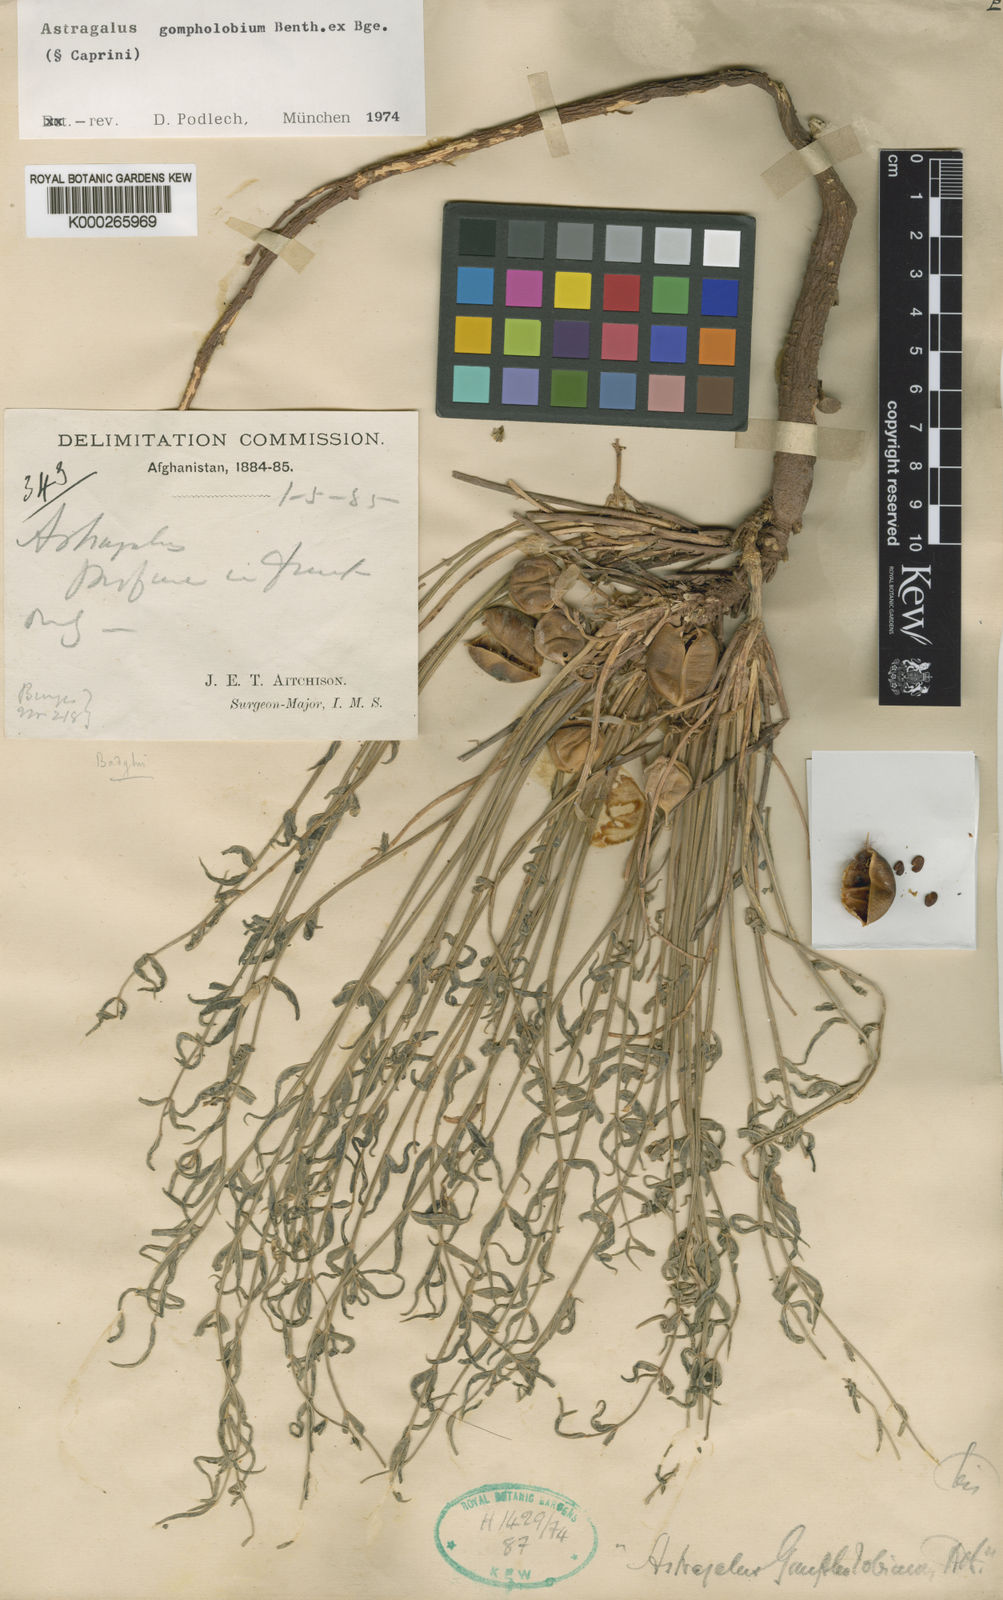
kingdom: Plantae
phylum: Tracheophyta
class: Magnoliopsida
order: Fabales
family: Fabaceae
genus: Astragalus
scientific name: Astragalus gompholobium
